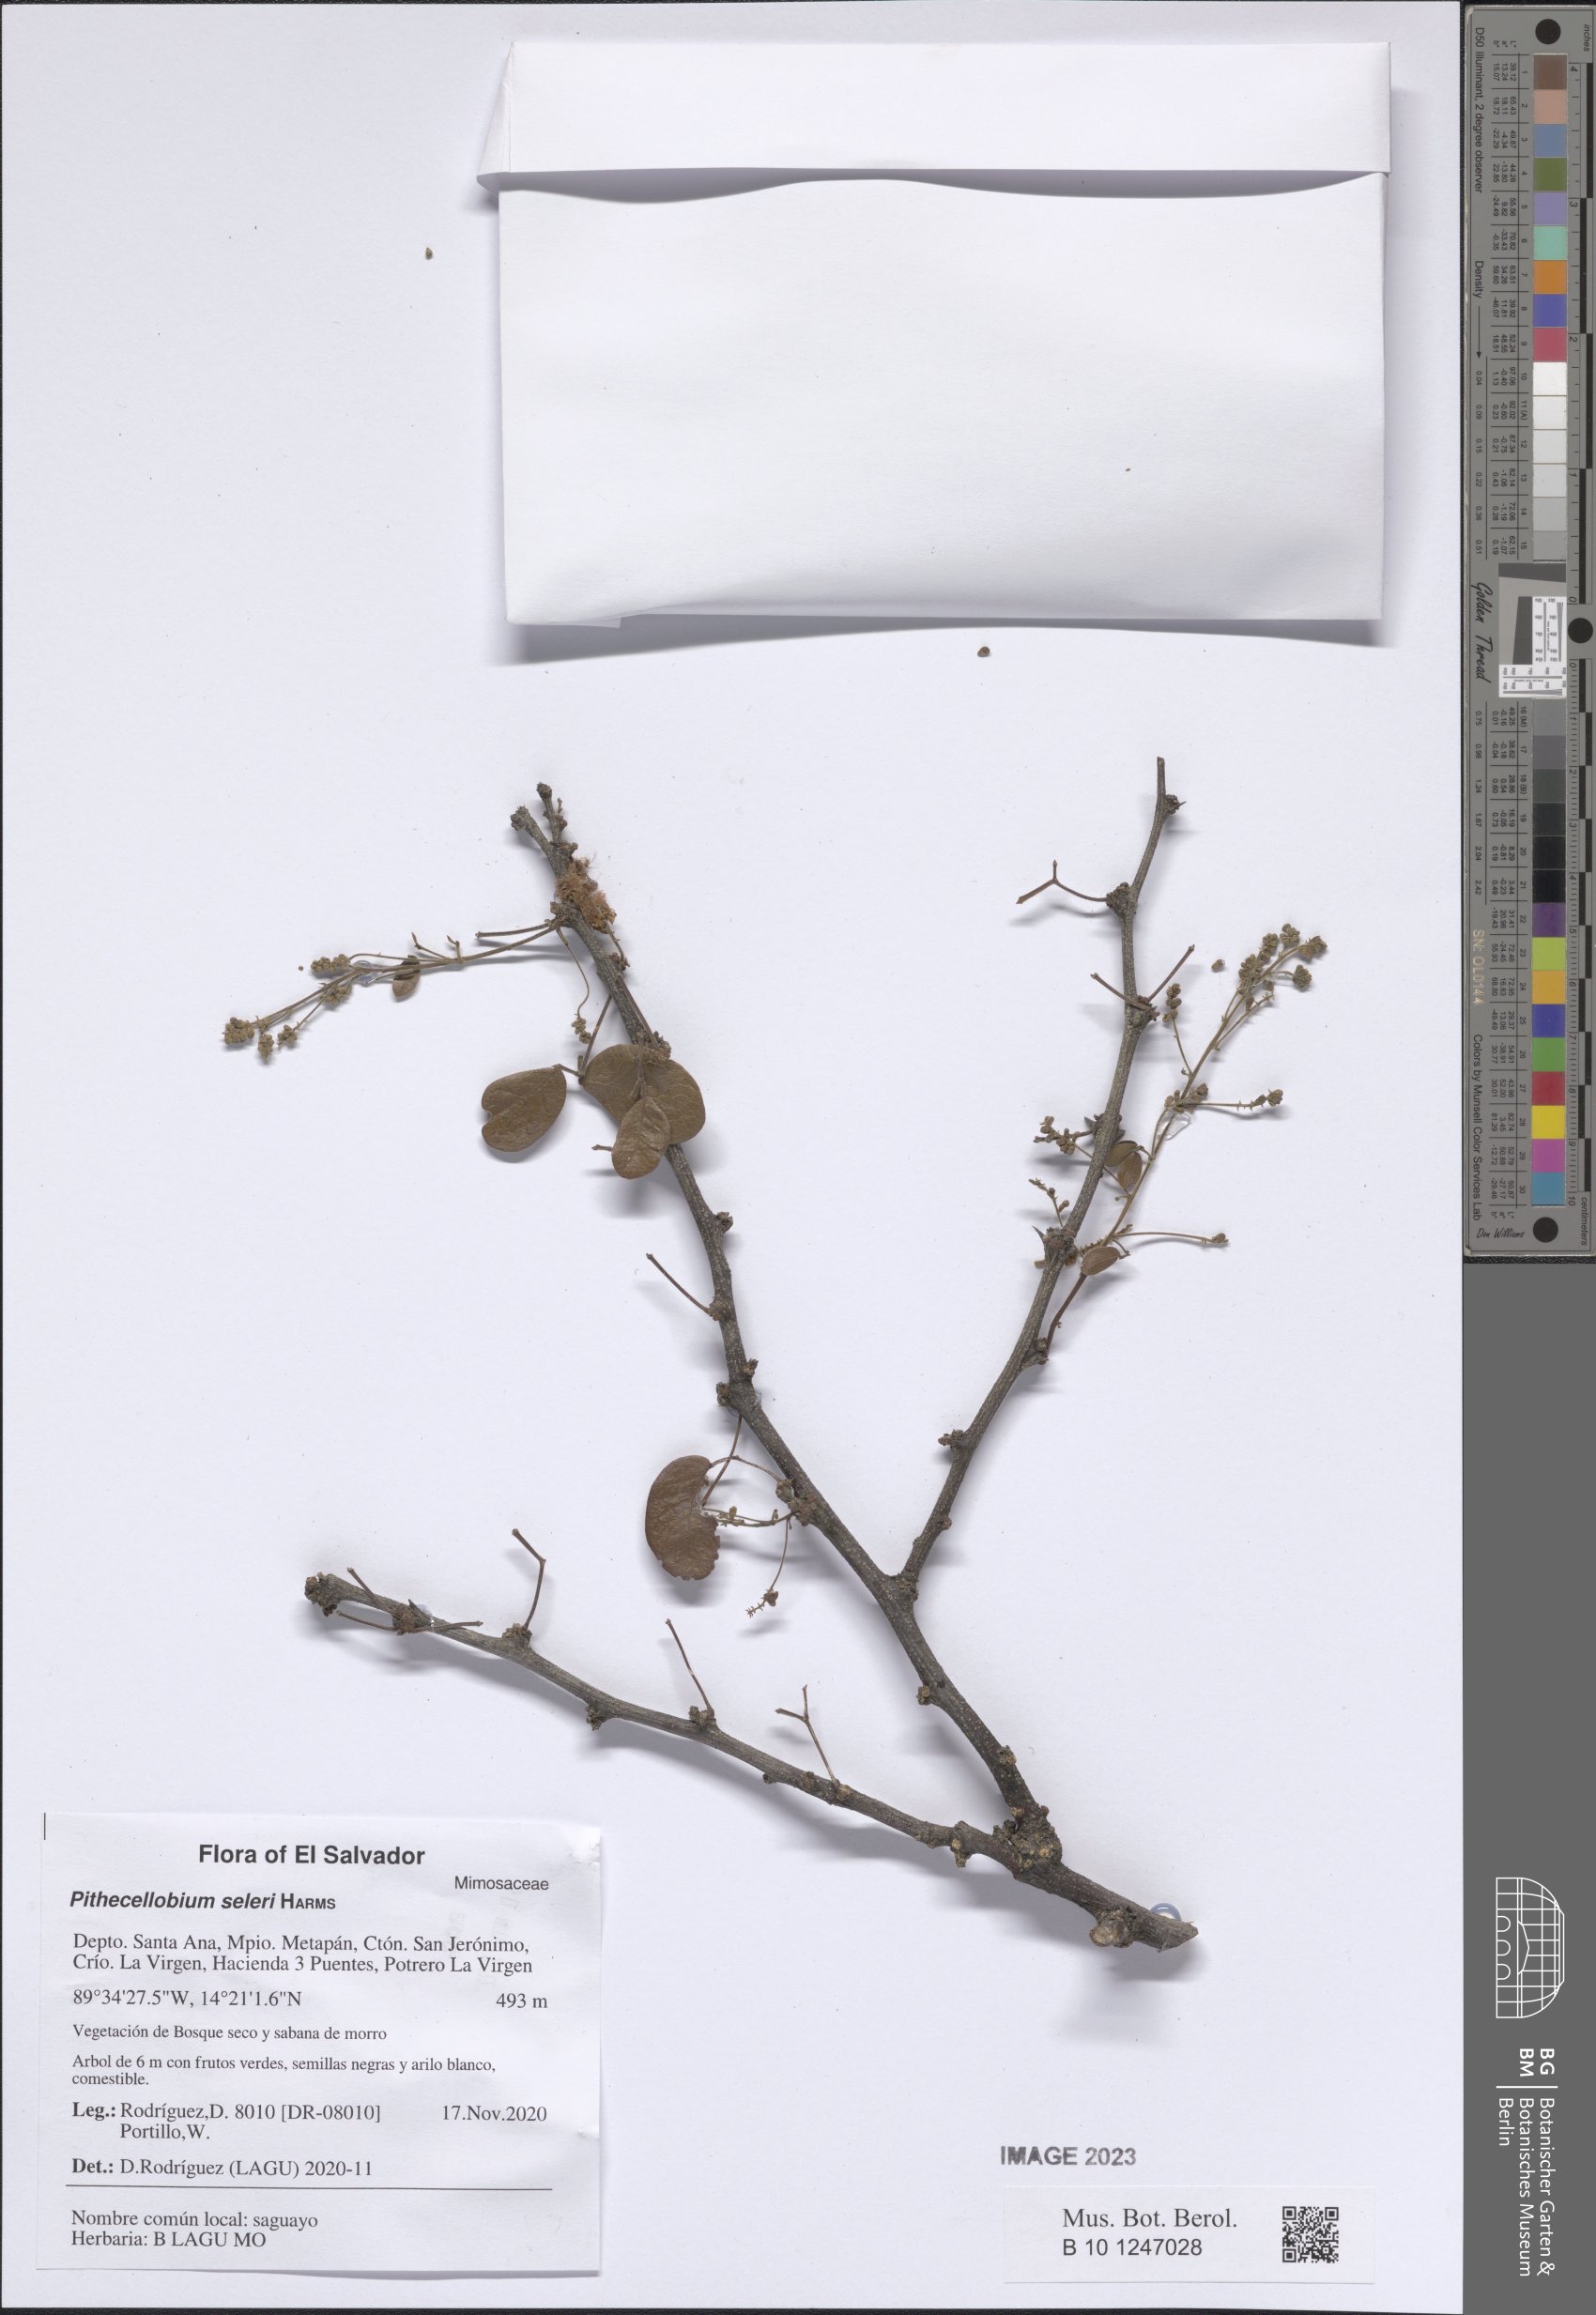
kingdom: Plantae
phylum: Tracheophyta
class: Magnoliopsida
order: Fabales
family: Fabaceae
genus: Pithecellobium
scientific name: Pithecellobium unguis-cati
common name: Cat's-claw
